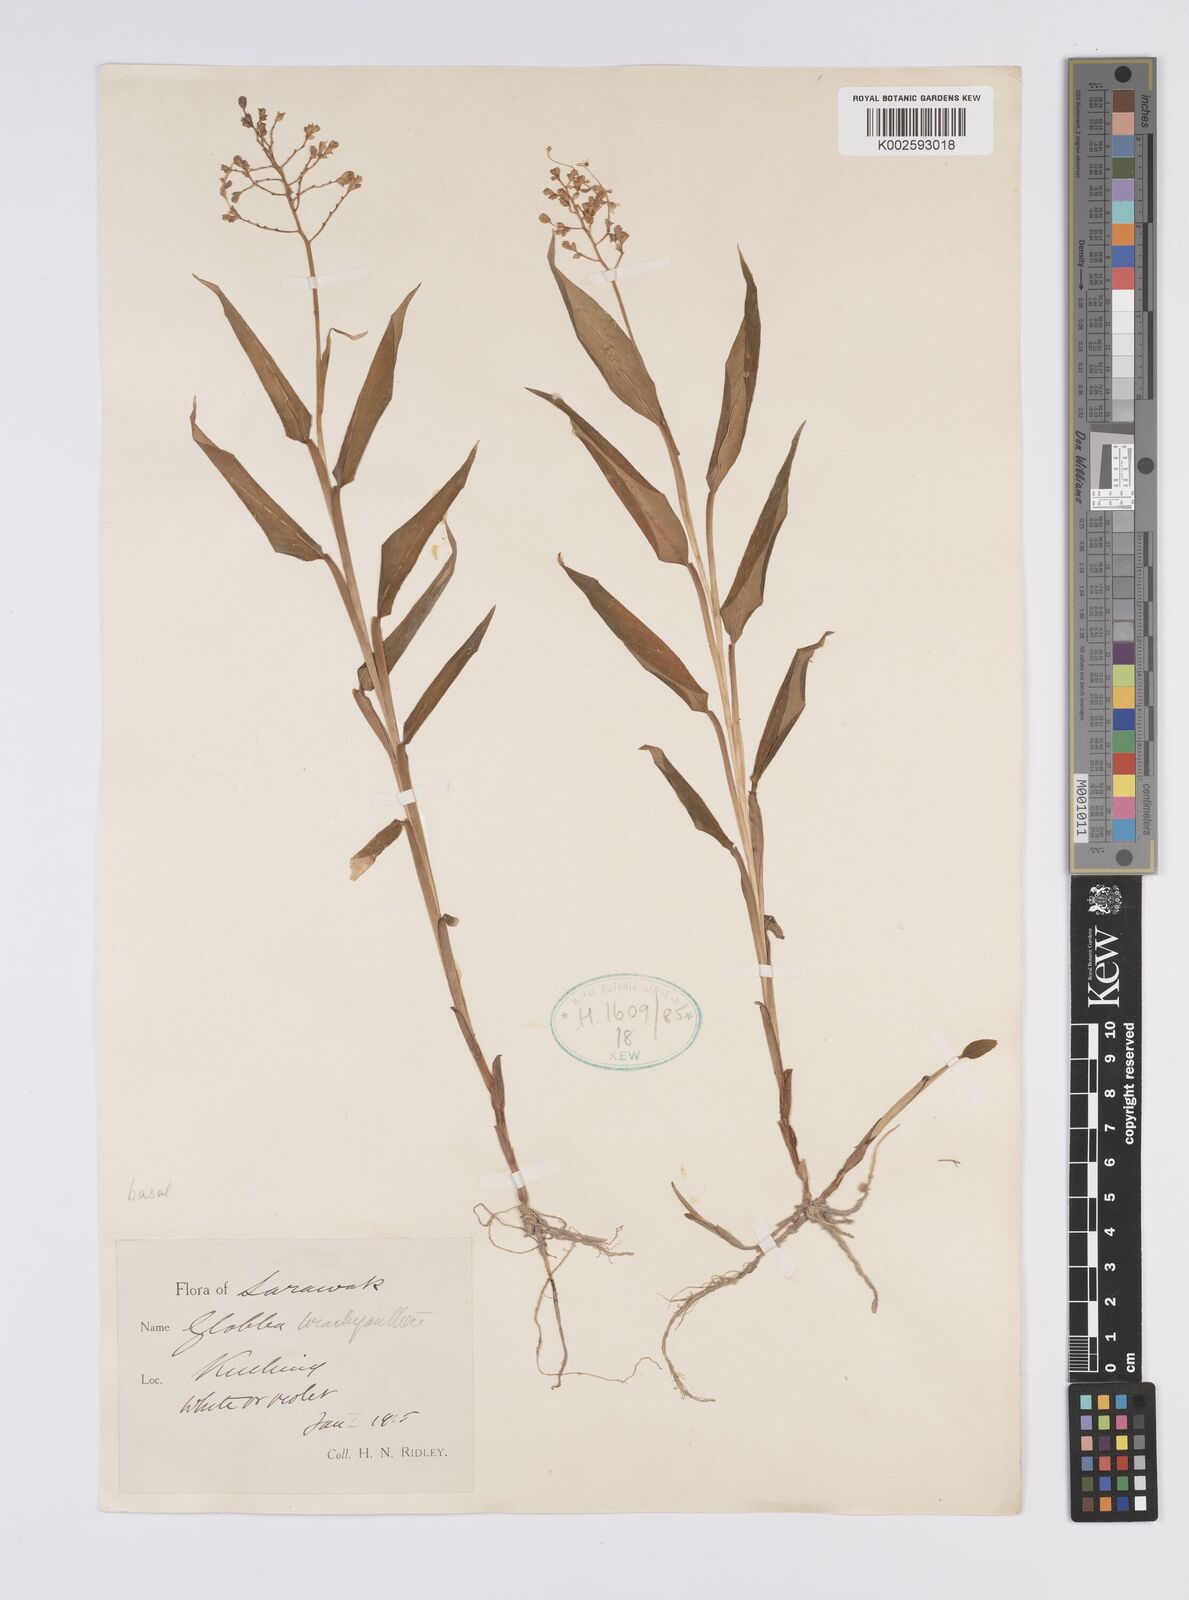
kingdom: Plantae
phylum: Tracheophyta
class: Liliopsida
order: Zingiberales
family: Zingiberaceae
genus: Globba
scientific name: Globba brachyanthera
